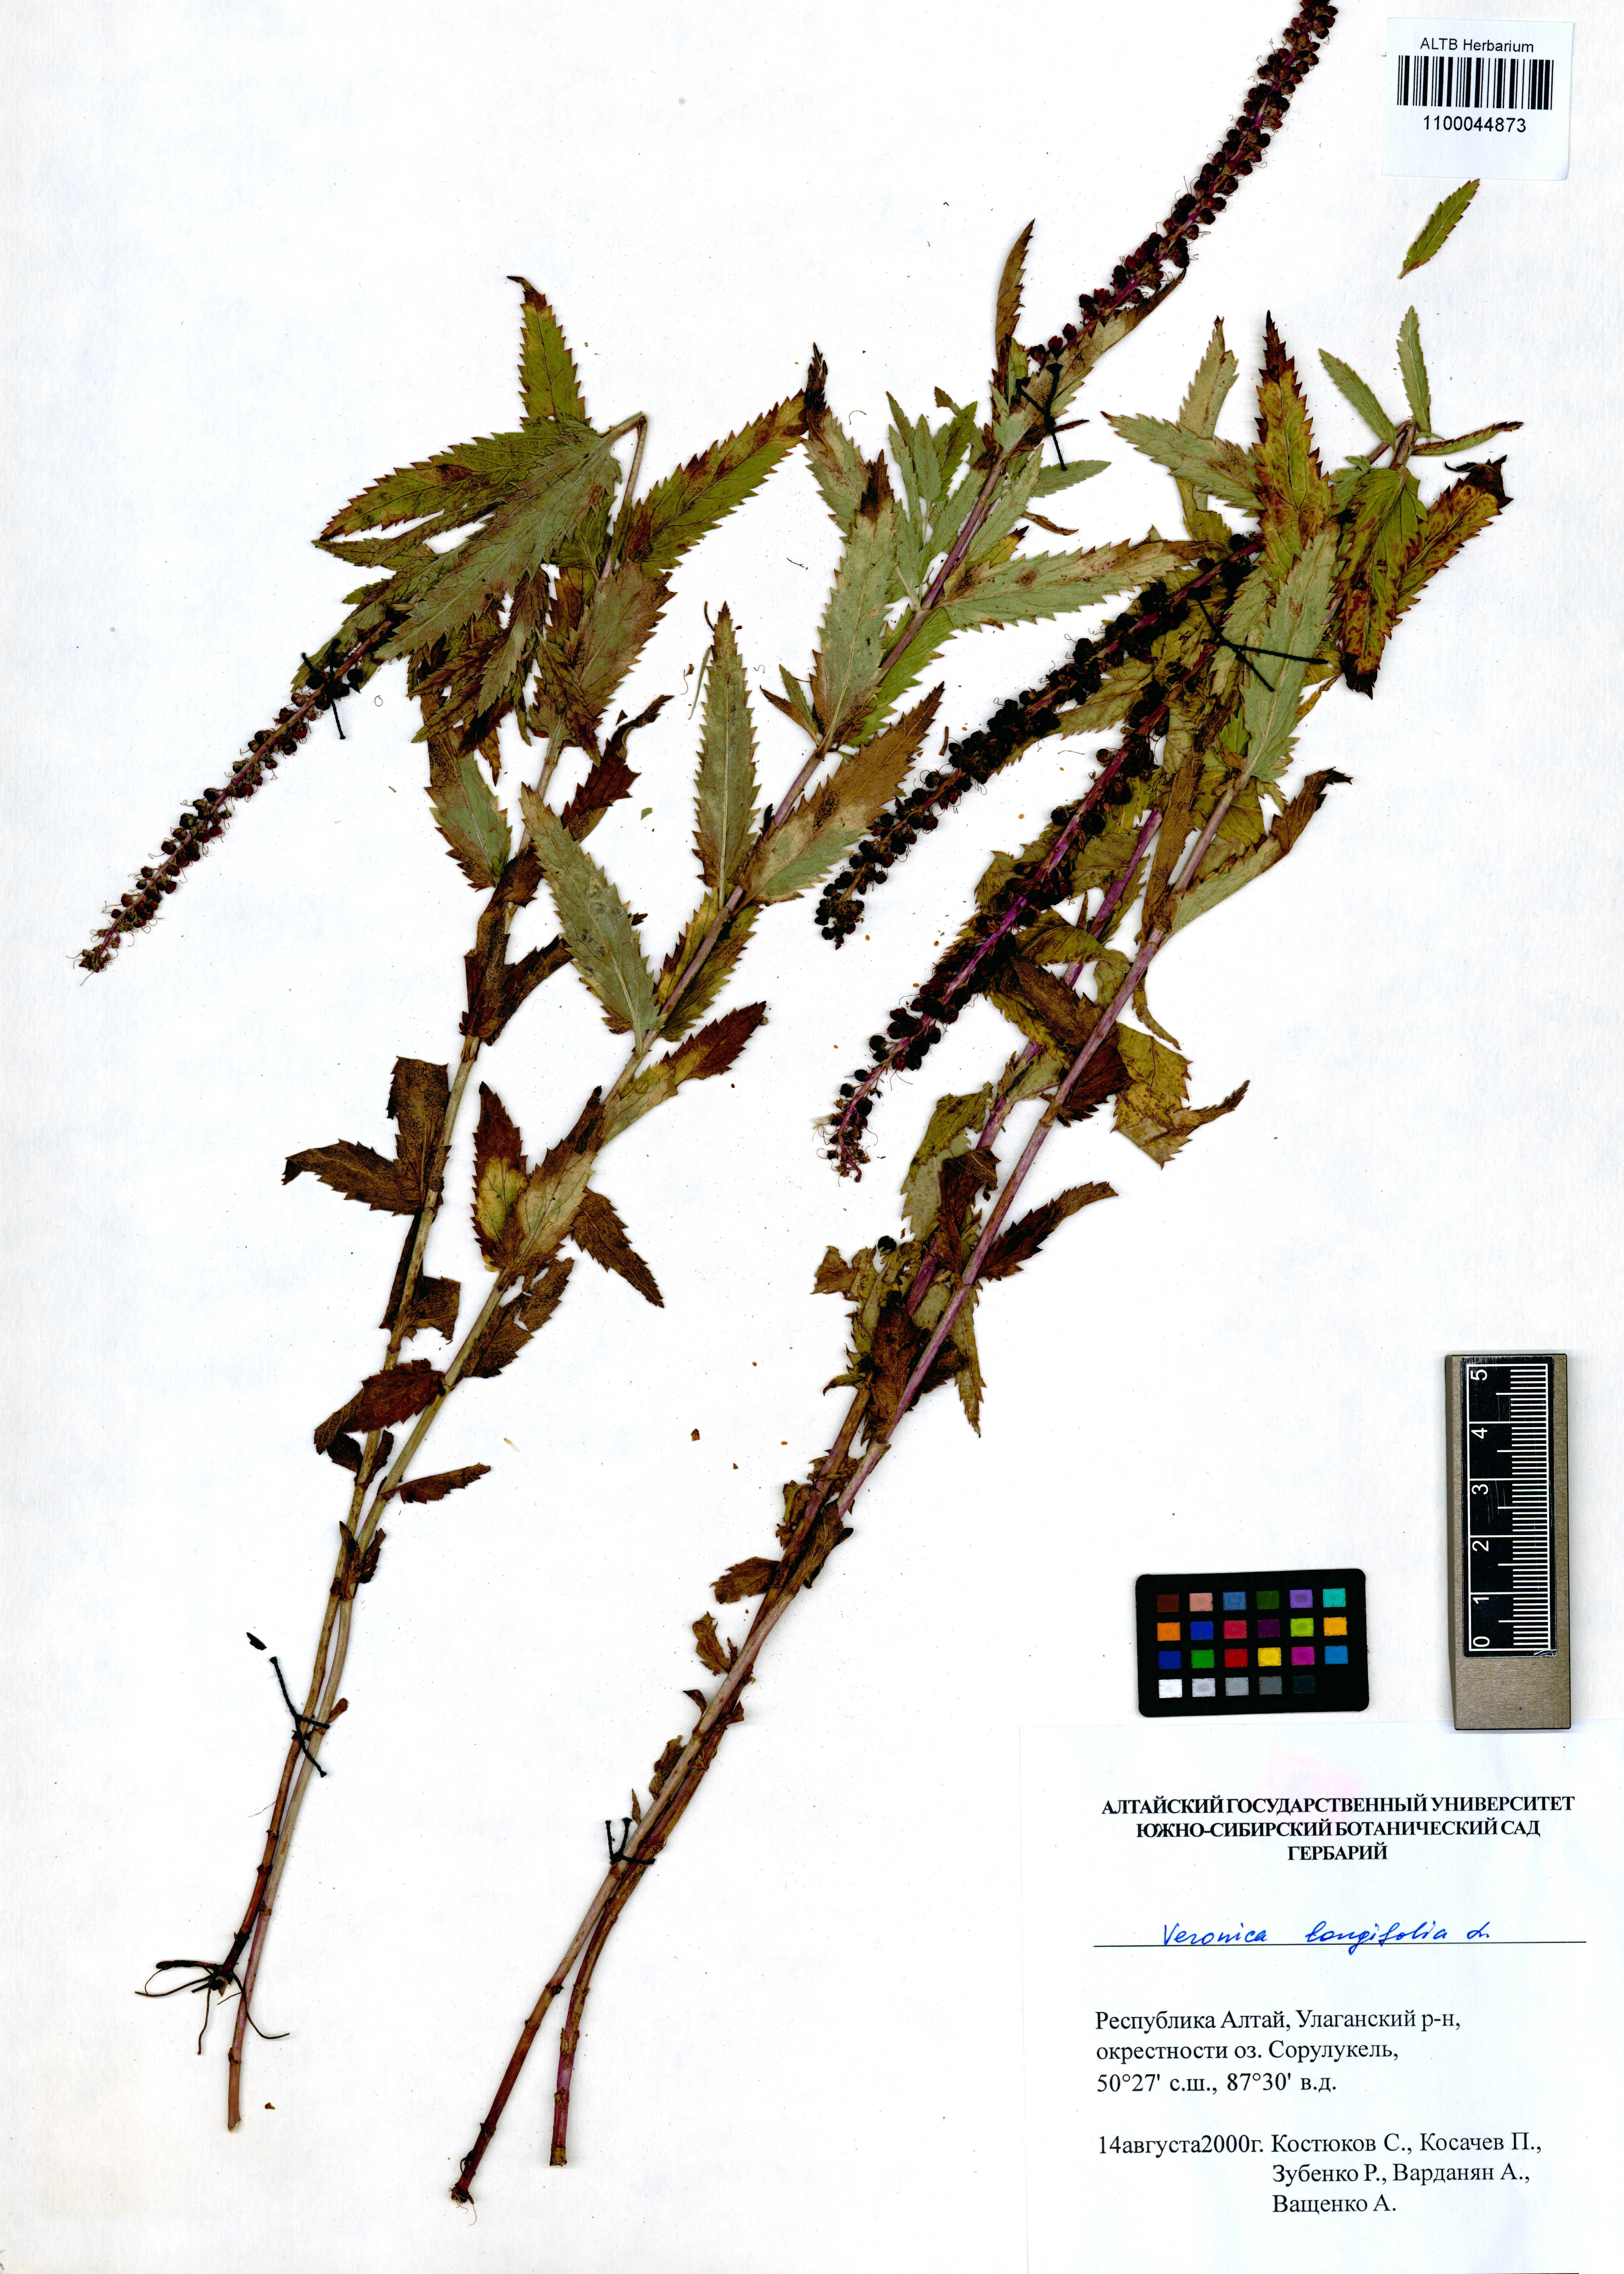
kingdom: Plantae
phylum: Tracheophyta
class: Magnoliopsida
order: Lamiales
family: Plantaginaceae
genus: Veronica
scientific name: Veronica longifolia
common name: Garden speedwell
